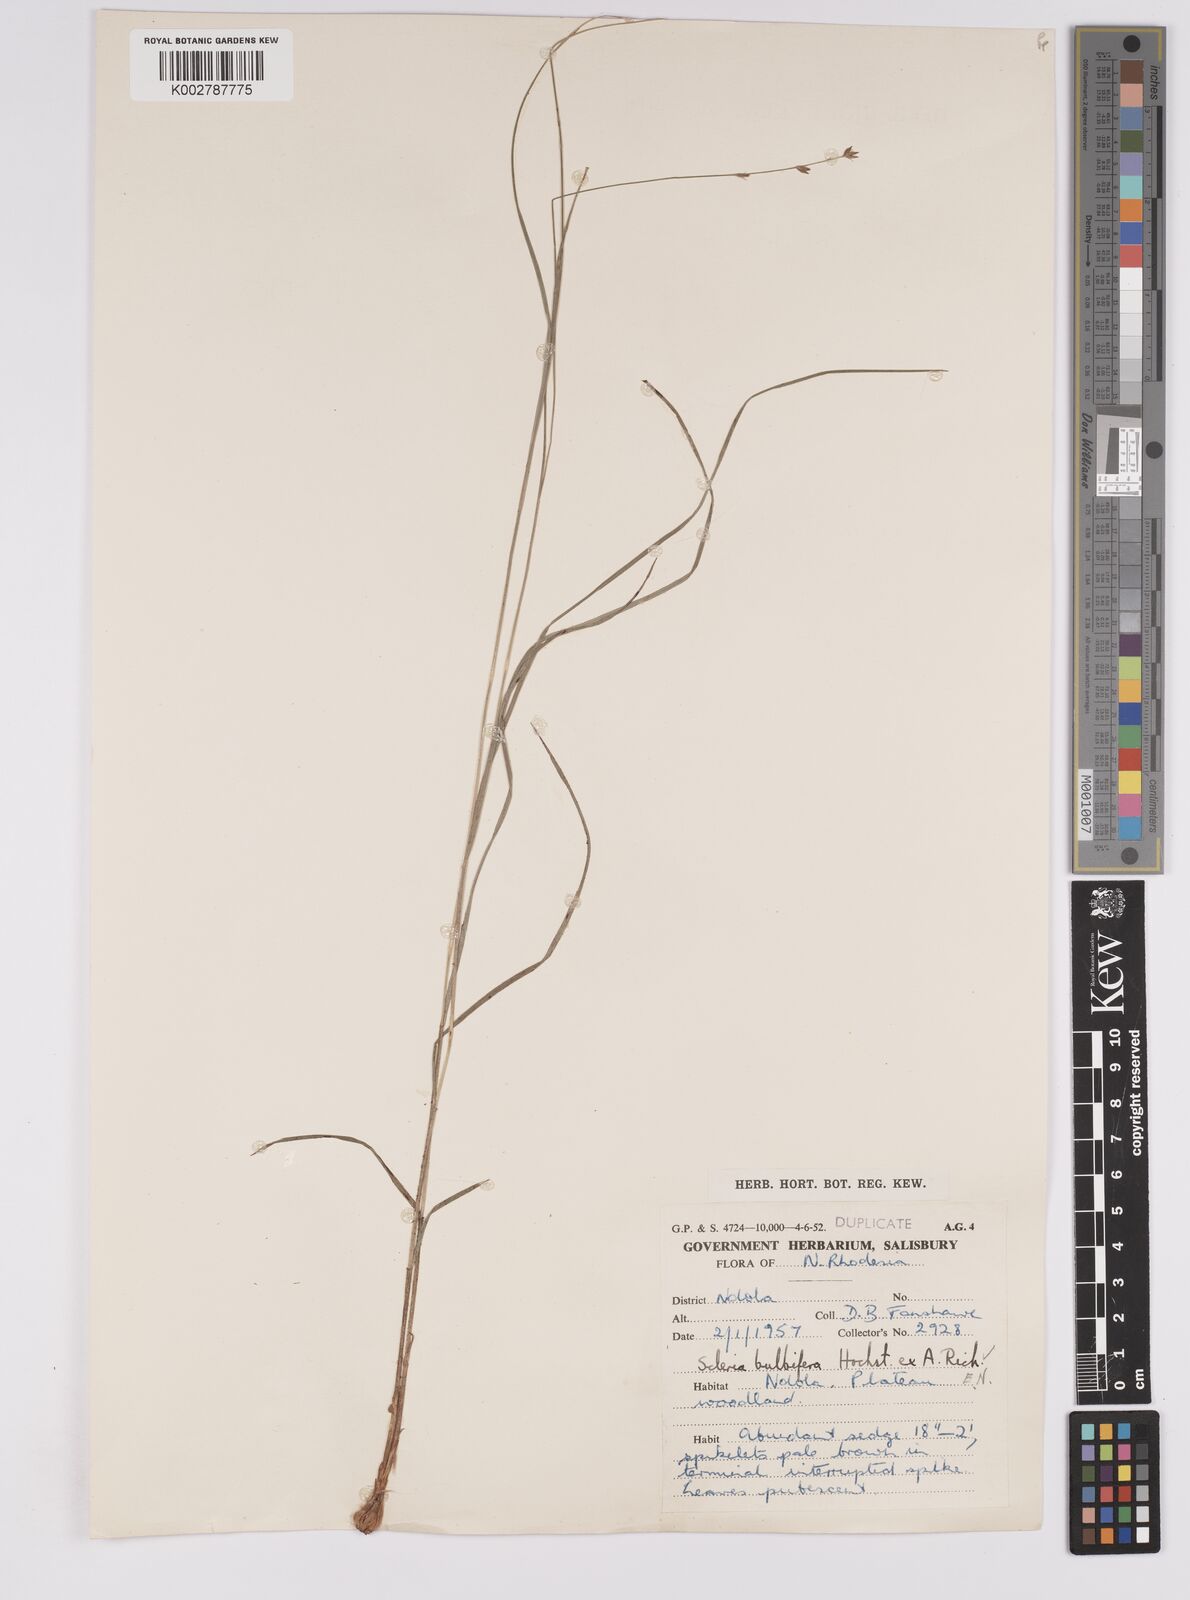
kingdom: Plantae
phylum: Tracheophyta
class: Liliopsida
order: Poales
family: Cyperaceae
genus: Scleria
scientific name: Scleria bulbifera
